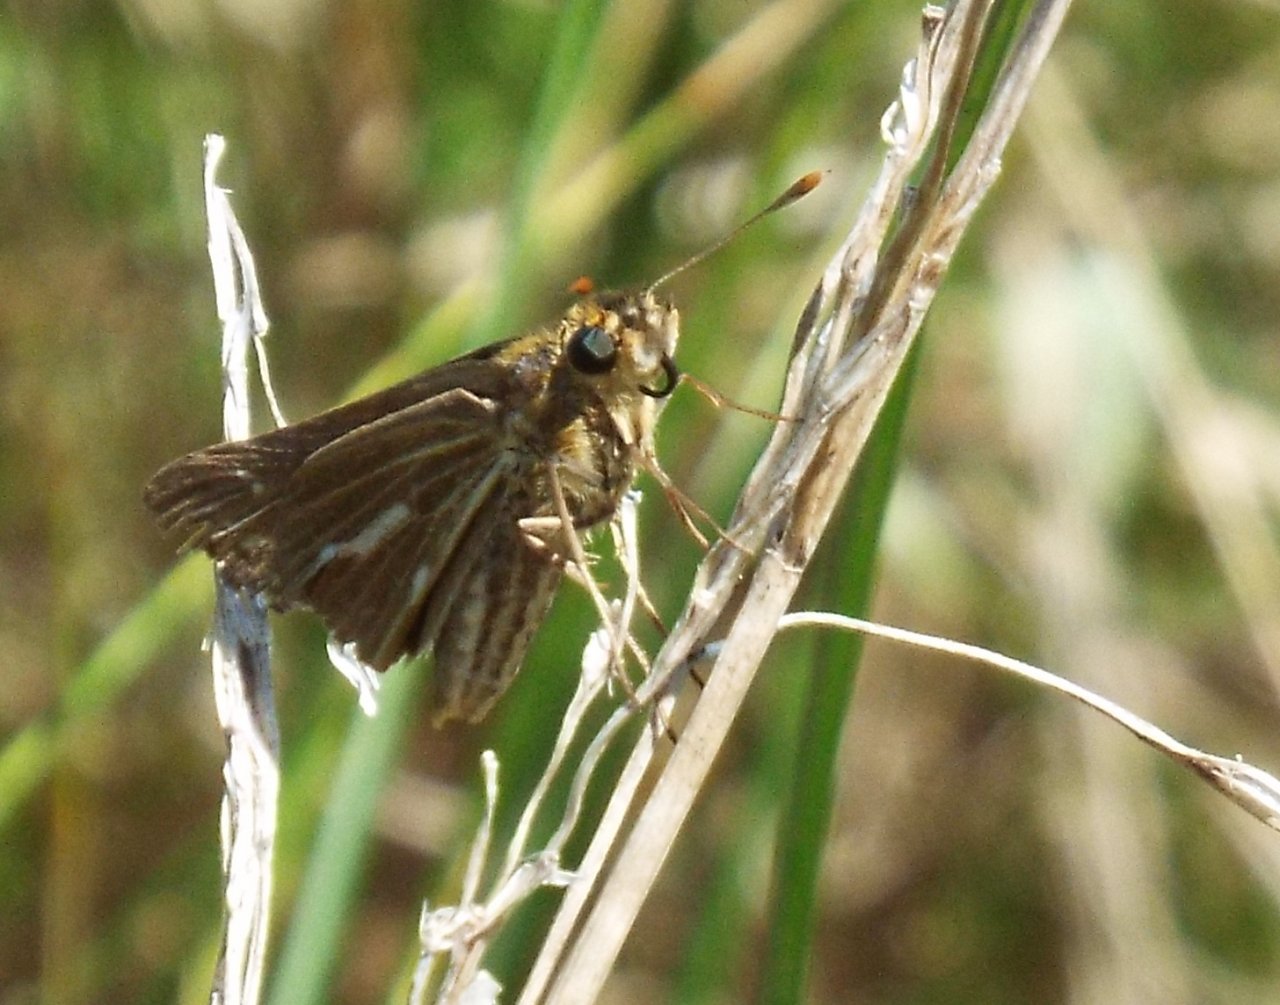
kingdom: Animalia
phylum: Arthropoda
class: Insecta
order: Lepidoptera
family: Hesperiidae
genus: Panoquina
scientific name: Panoquina panoquin
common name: Salt Marsh Skipper
